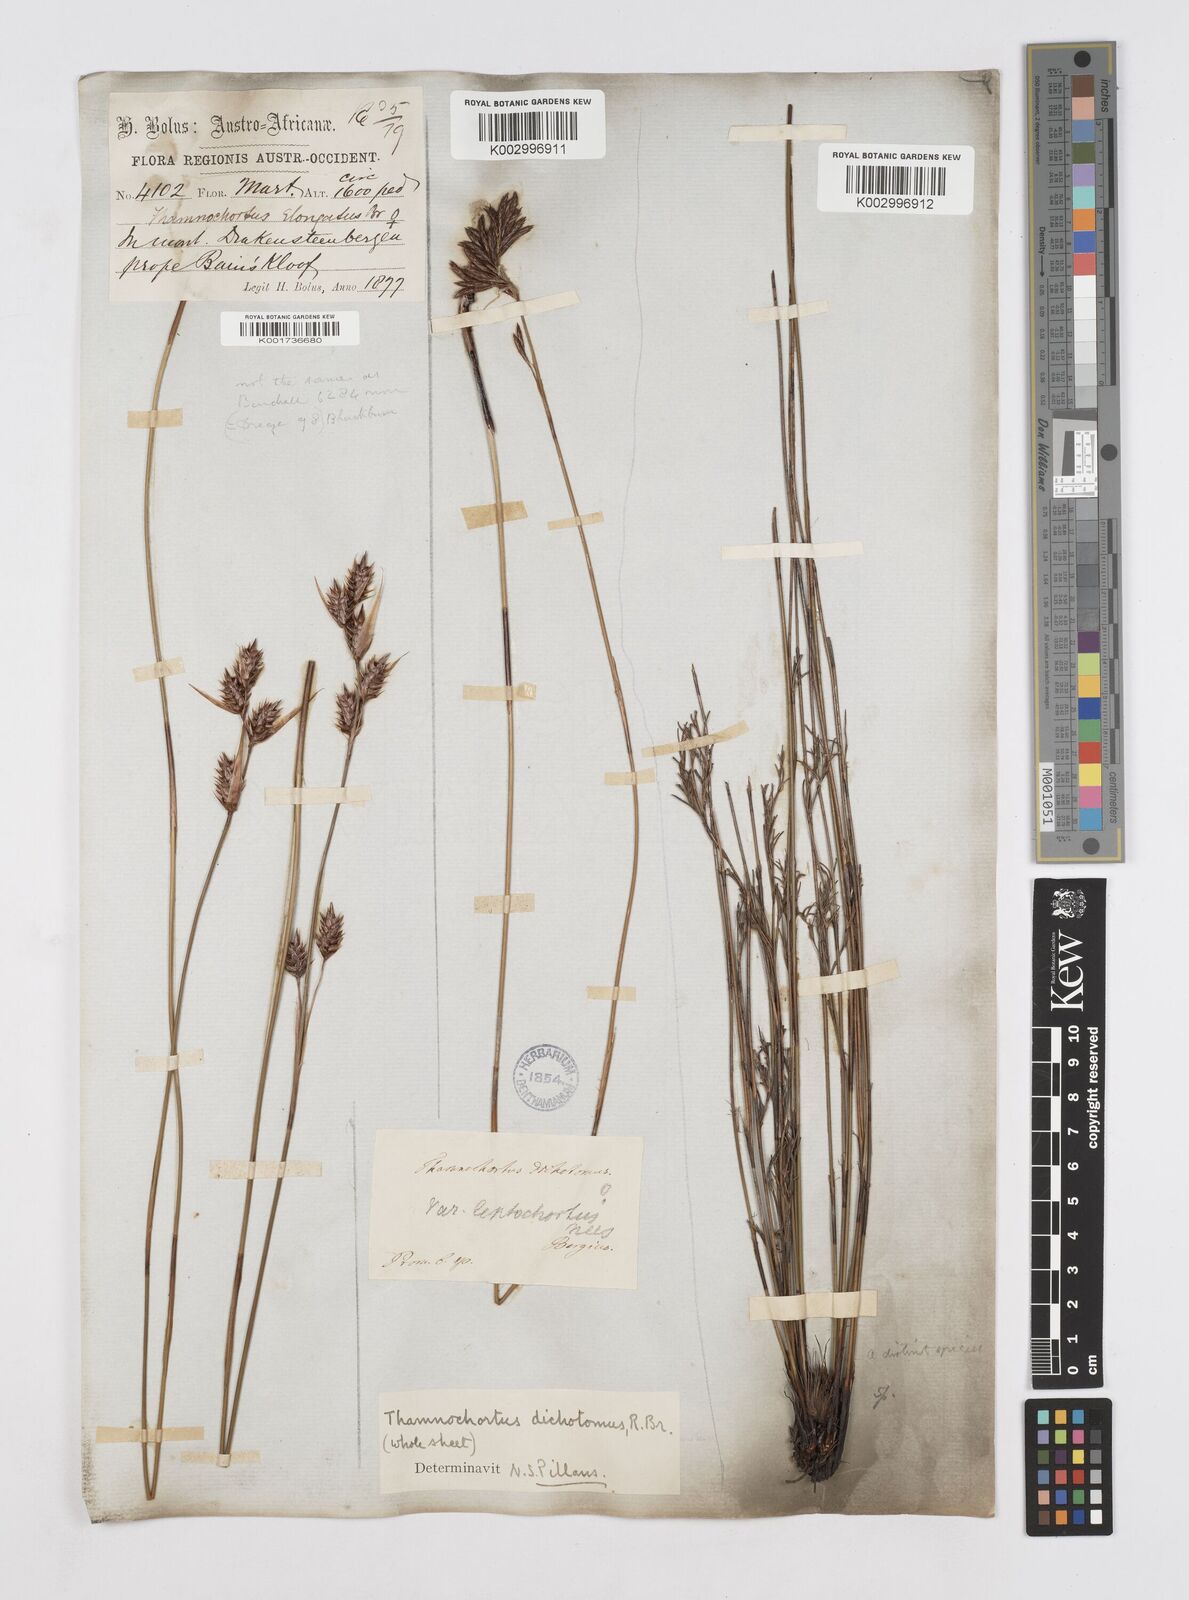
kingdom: Plantae
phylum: Tracheophyta
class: Liliopsida
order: Poales
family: Restionaceae
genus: Thamnochortus
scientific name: Thamnochortus lucens
